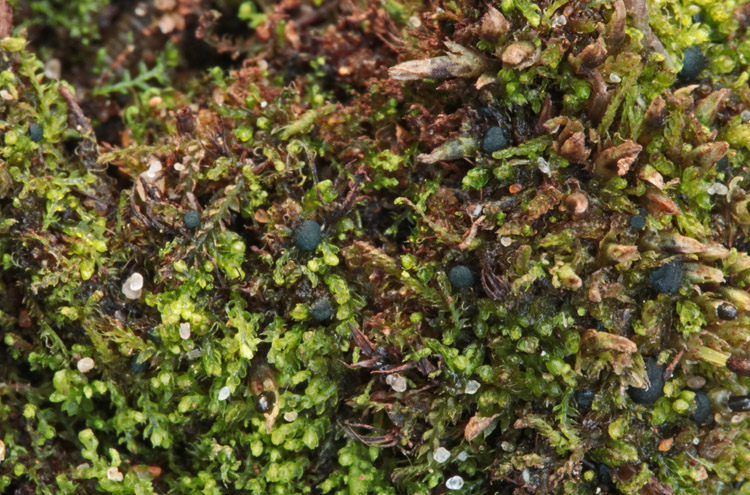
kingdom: Fungi
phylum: Ascomycota
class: Leotiomycetes
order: Leotiales
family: Mniaeciaceae
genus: Mniaecia
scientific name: Mniaecia jungermanniae
